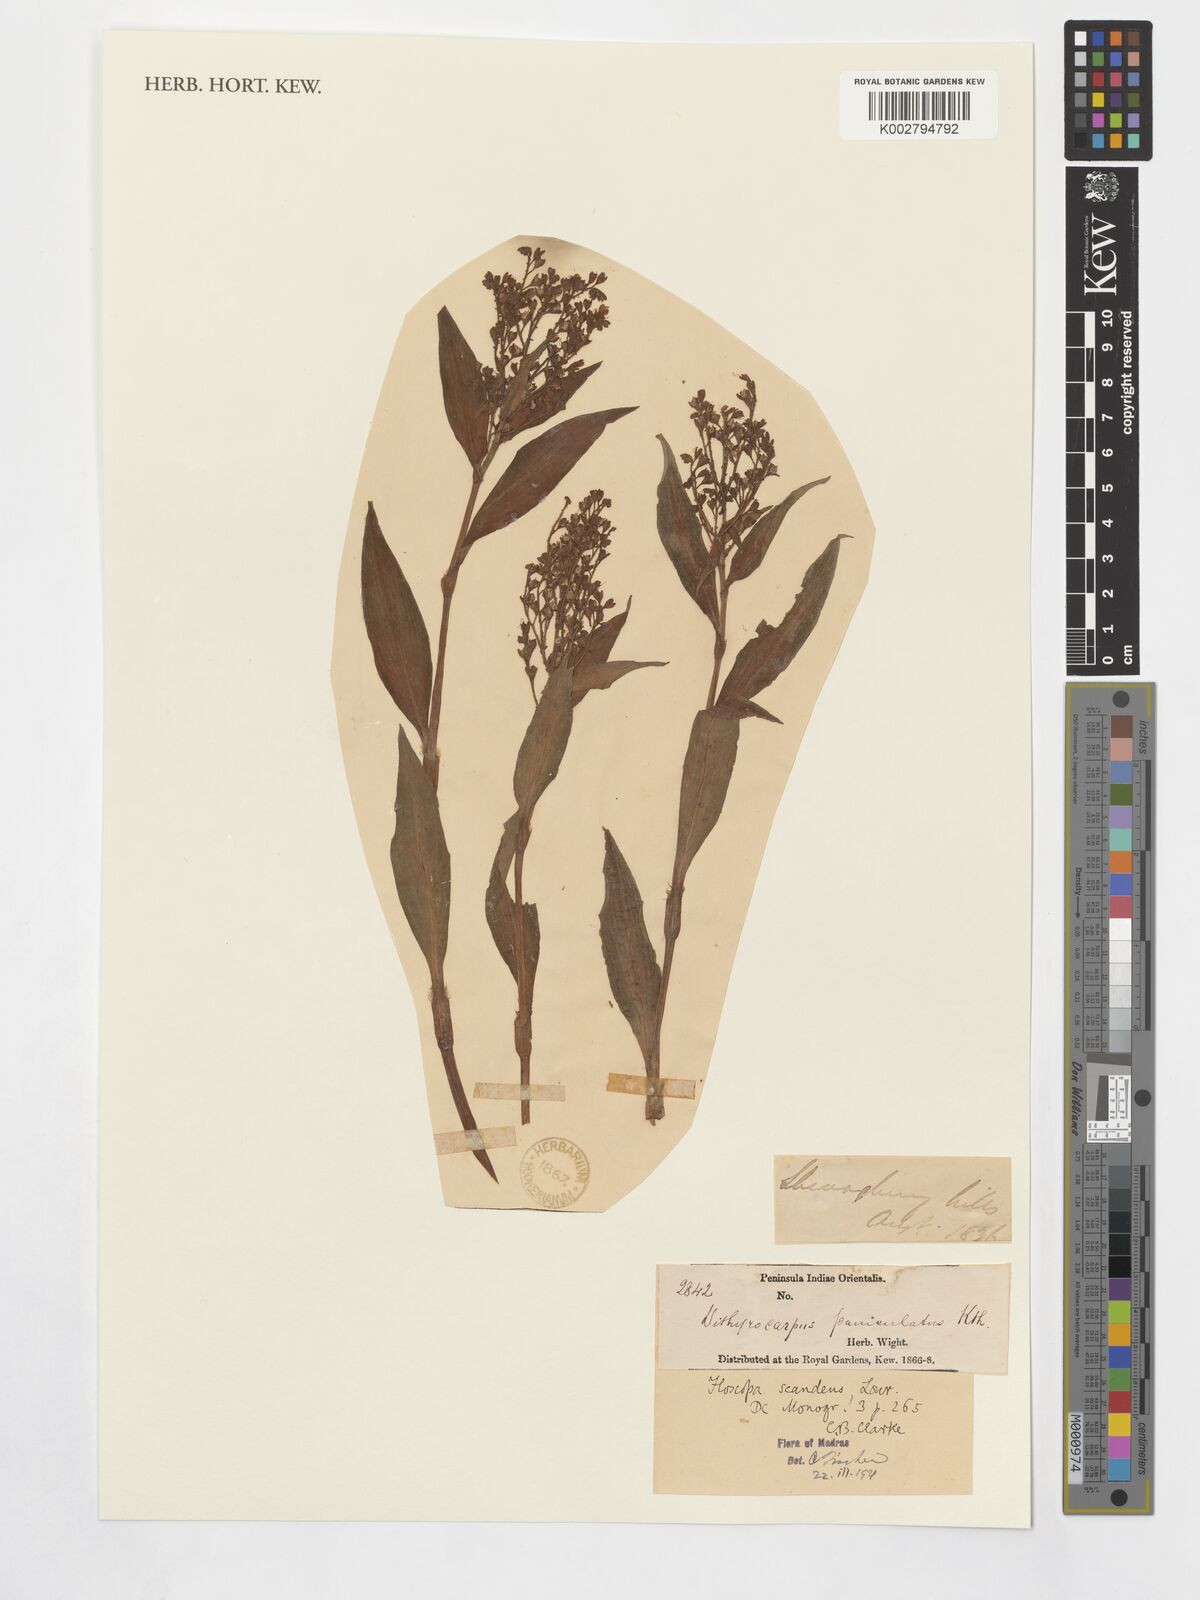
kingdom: Plantae
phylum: Tracheophyta
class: Liliopsida
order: Commelinales
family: Commelinaceae
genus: Floscopa
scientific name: Floscopa scandens
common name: Climbing flower cup
